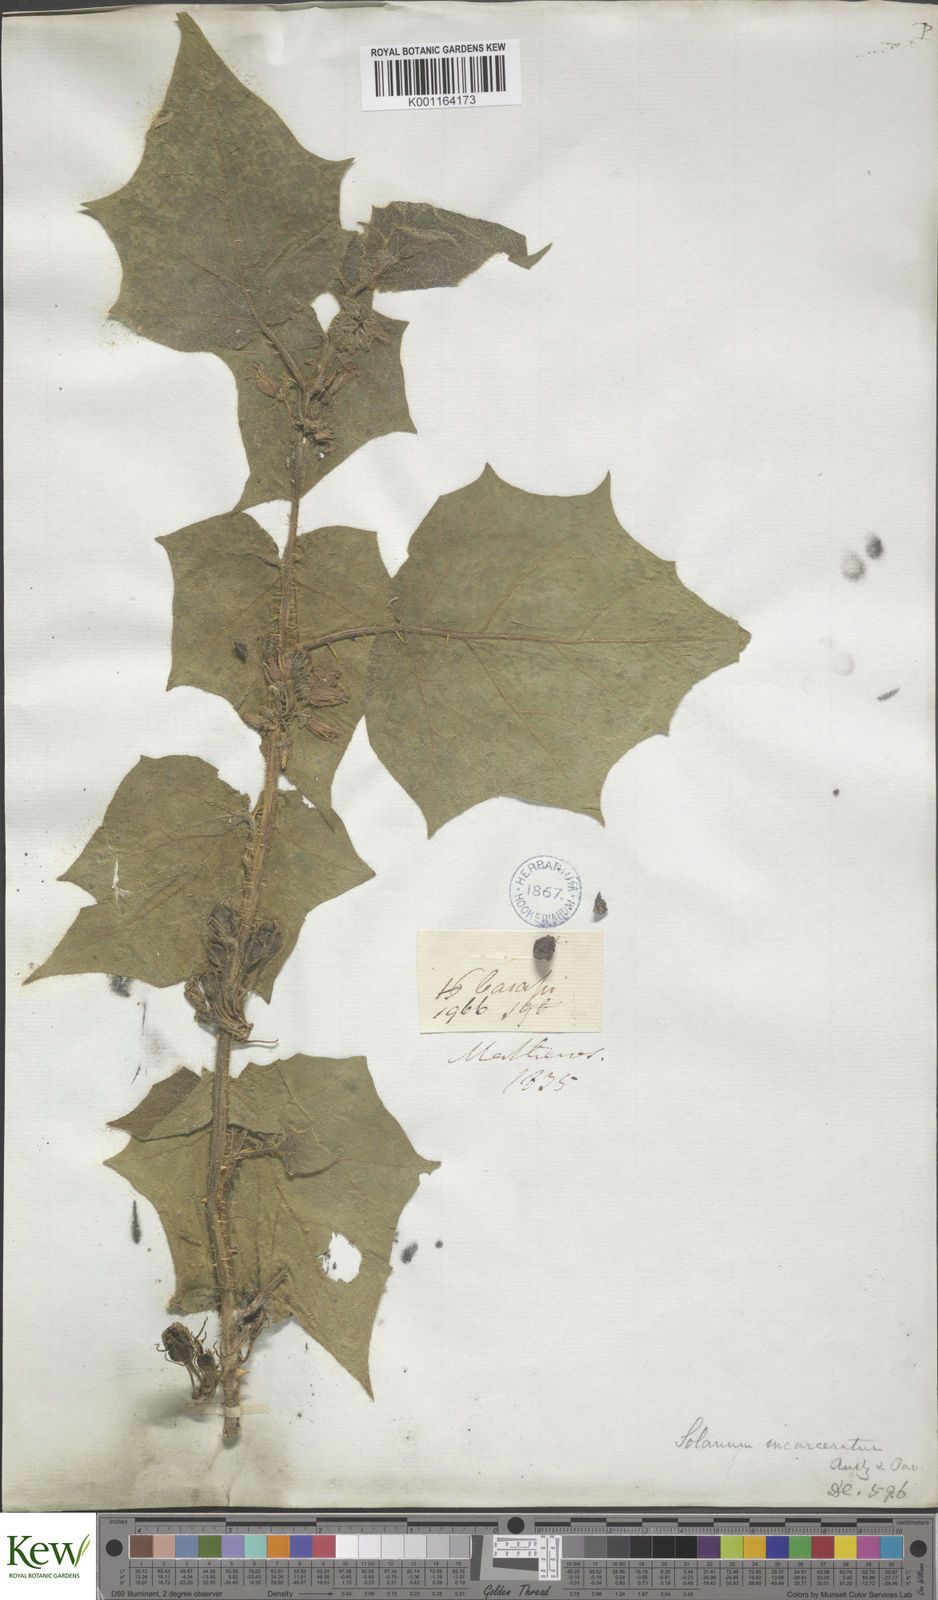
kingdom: Plantae
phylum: Tracheophyta
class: Magnoliopsida
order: Solanales
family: Solanaceae
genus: Solanum
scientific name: Solanum incarceratum
